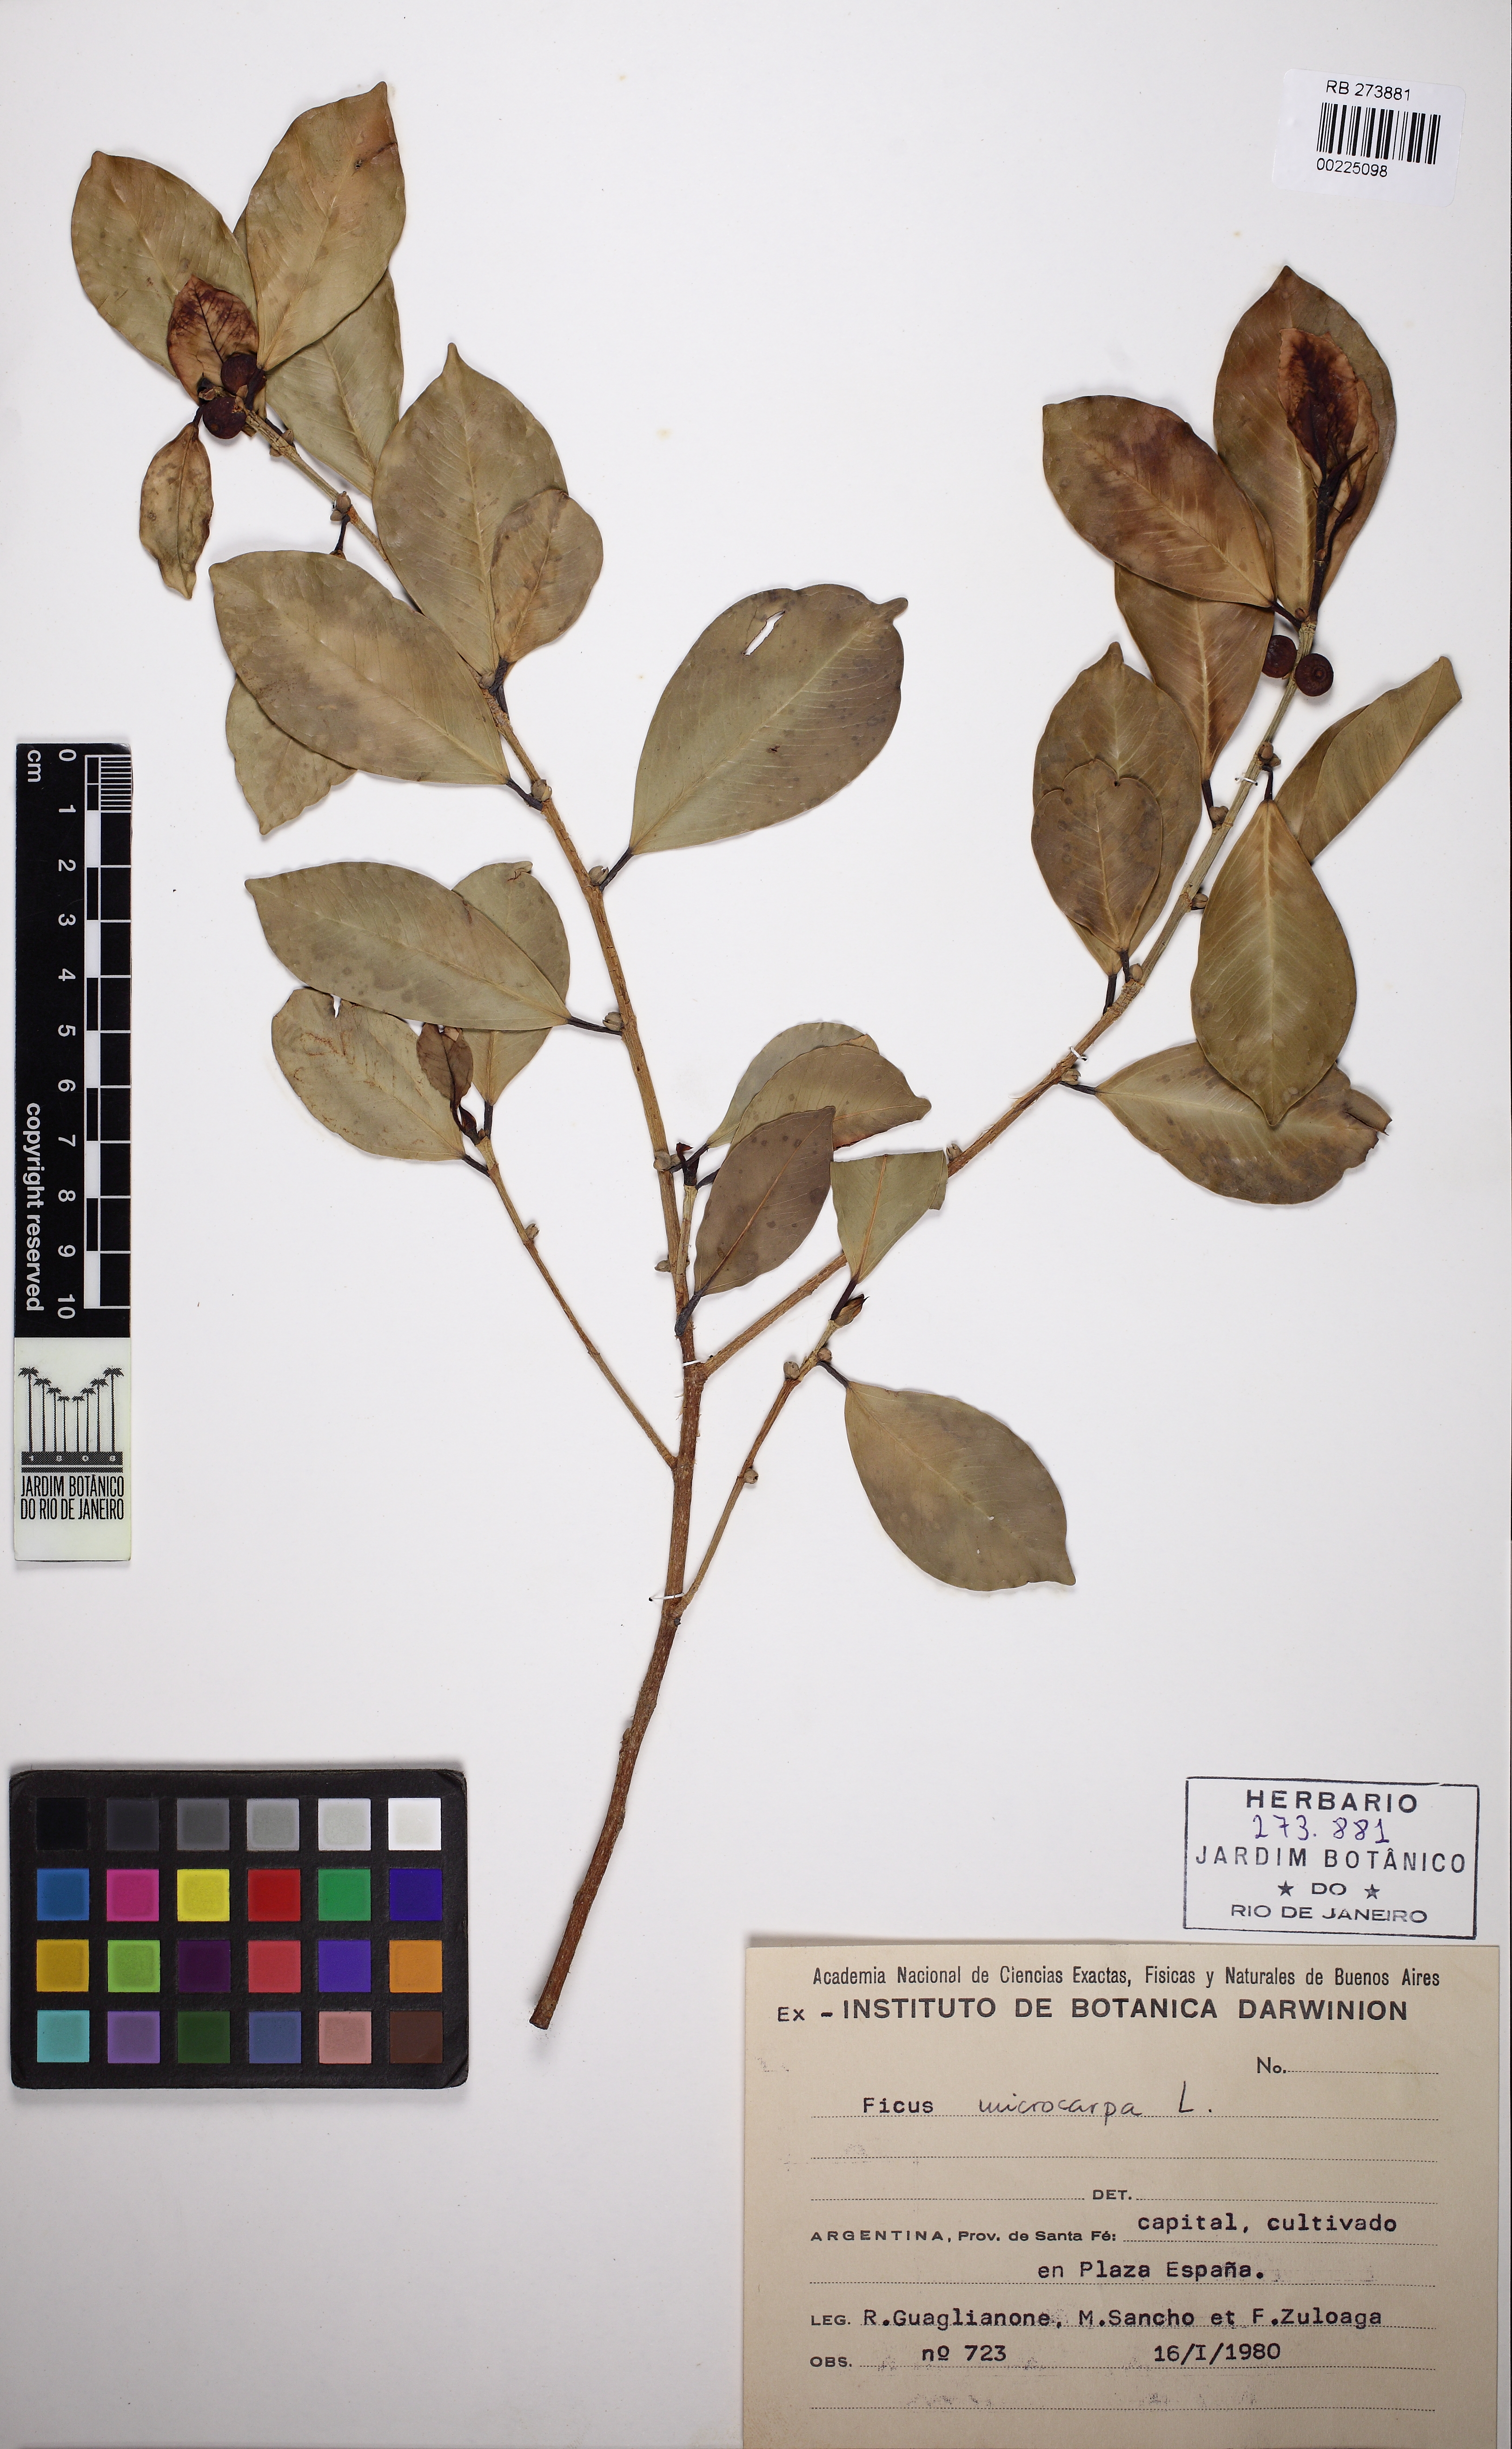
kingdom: Plantae
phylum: Tracheophyta
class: Magnoliopsida
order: Rosales
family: Moraceae
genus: Ficus
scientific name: Ficus microcarpa
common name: Chinese banyan
